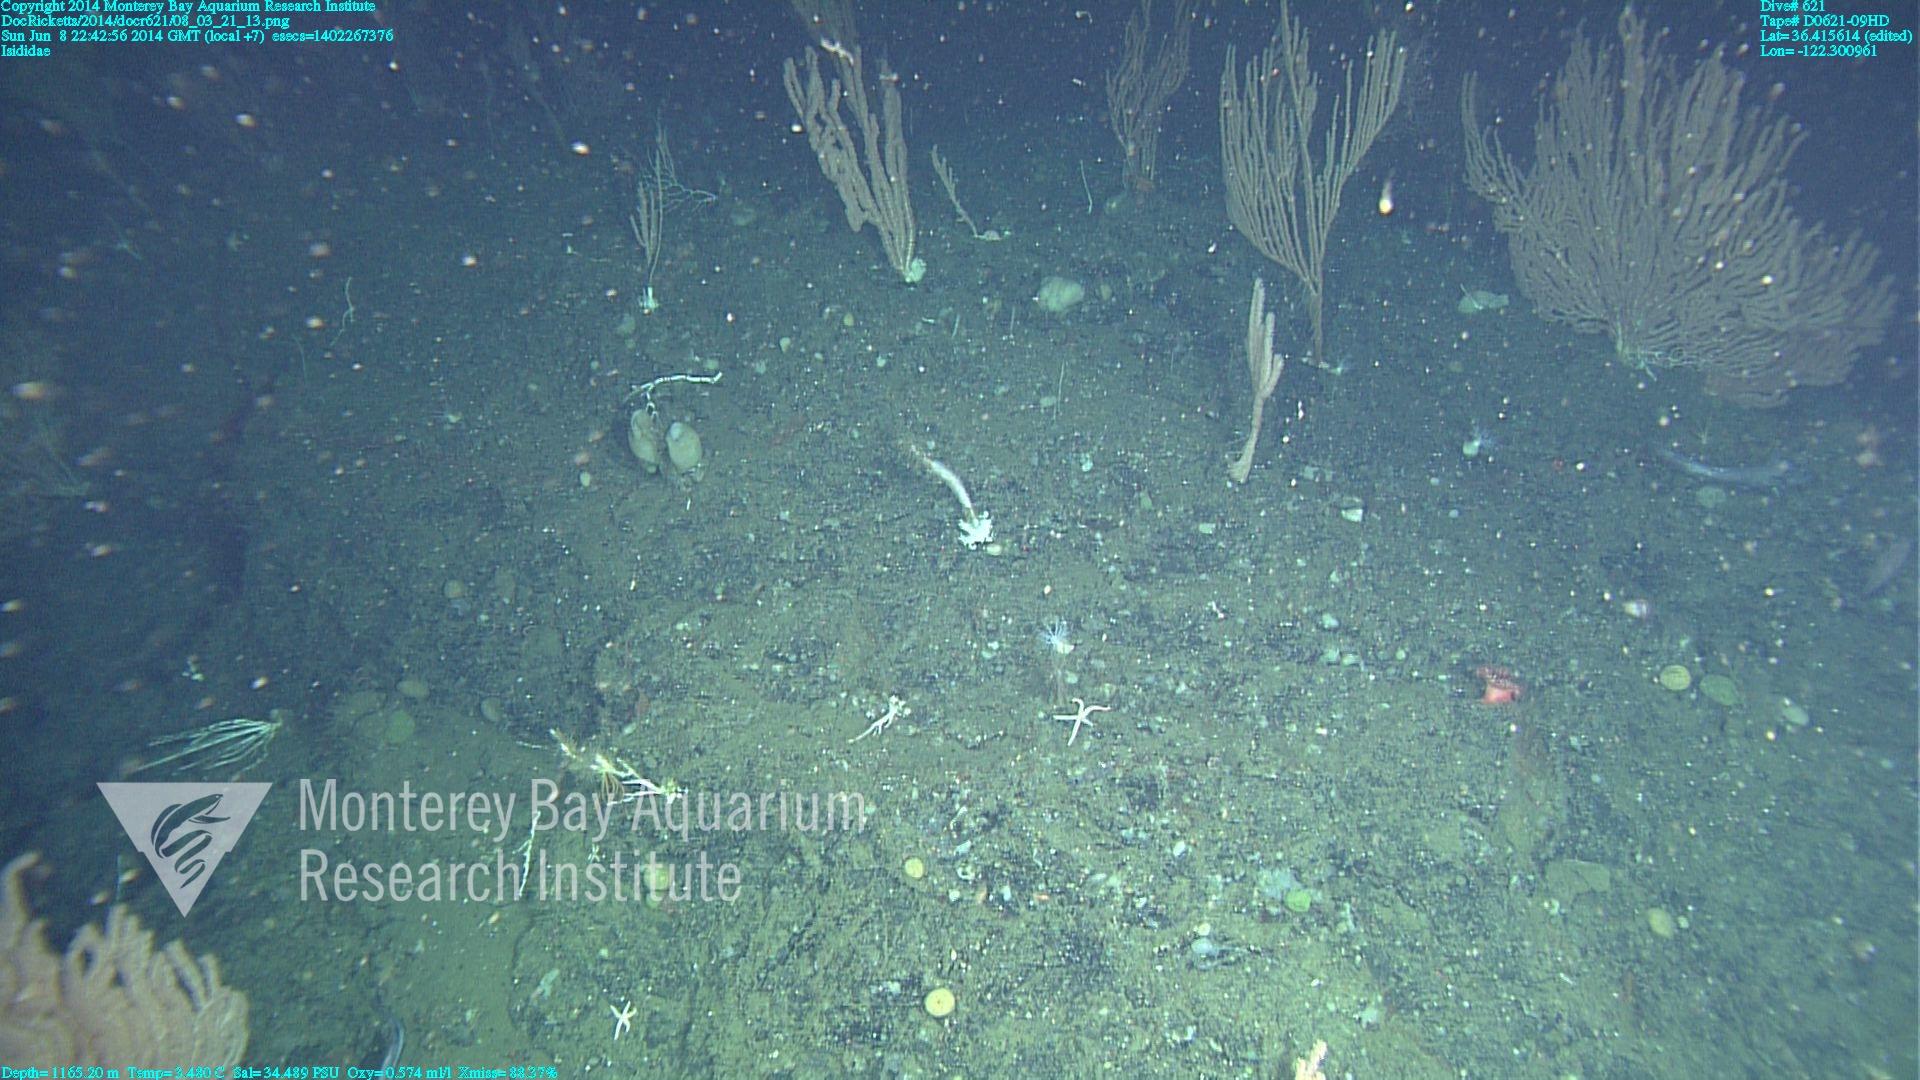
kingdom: Animalia
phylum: Cnidaria
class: Anthozoa
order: Scleralcyonacea
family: Keratoisididae
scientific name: Keratoisididae
